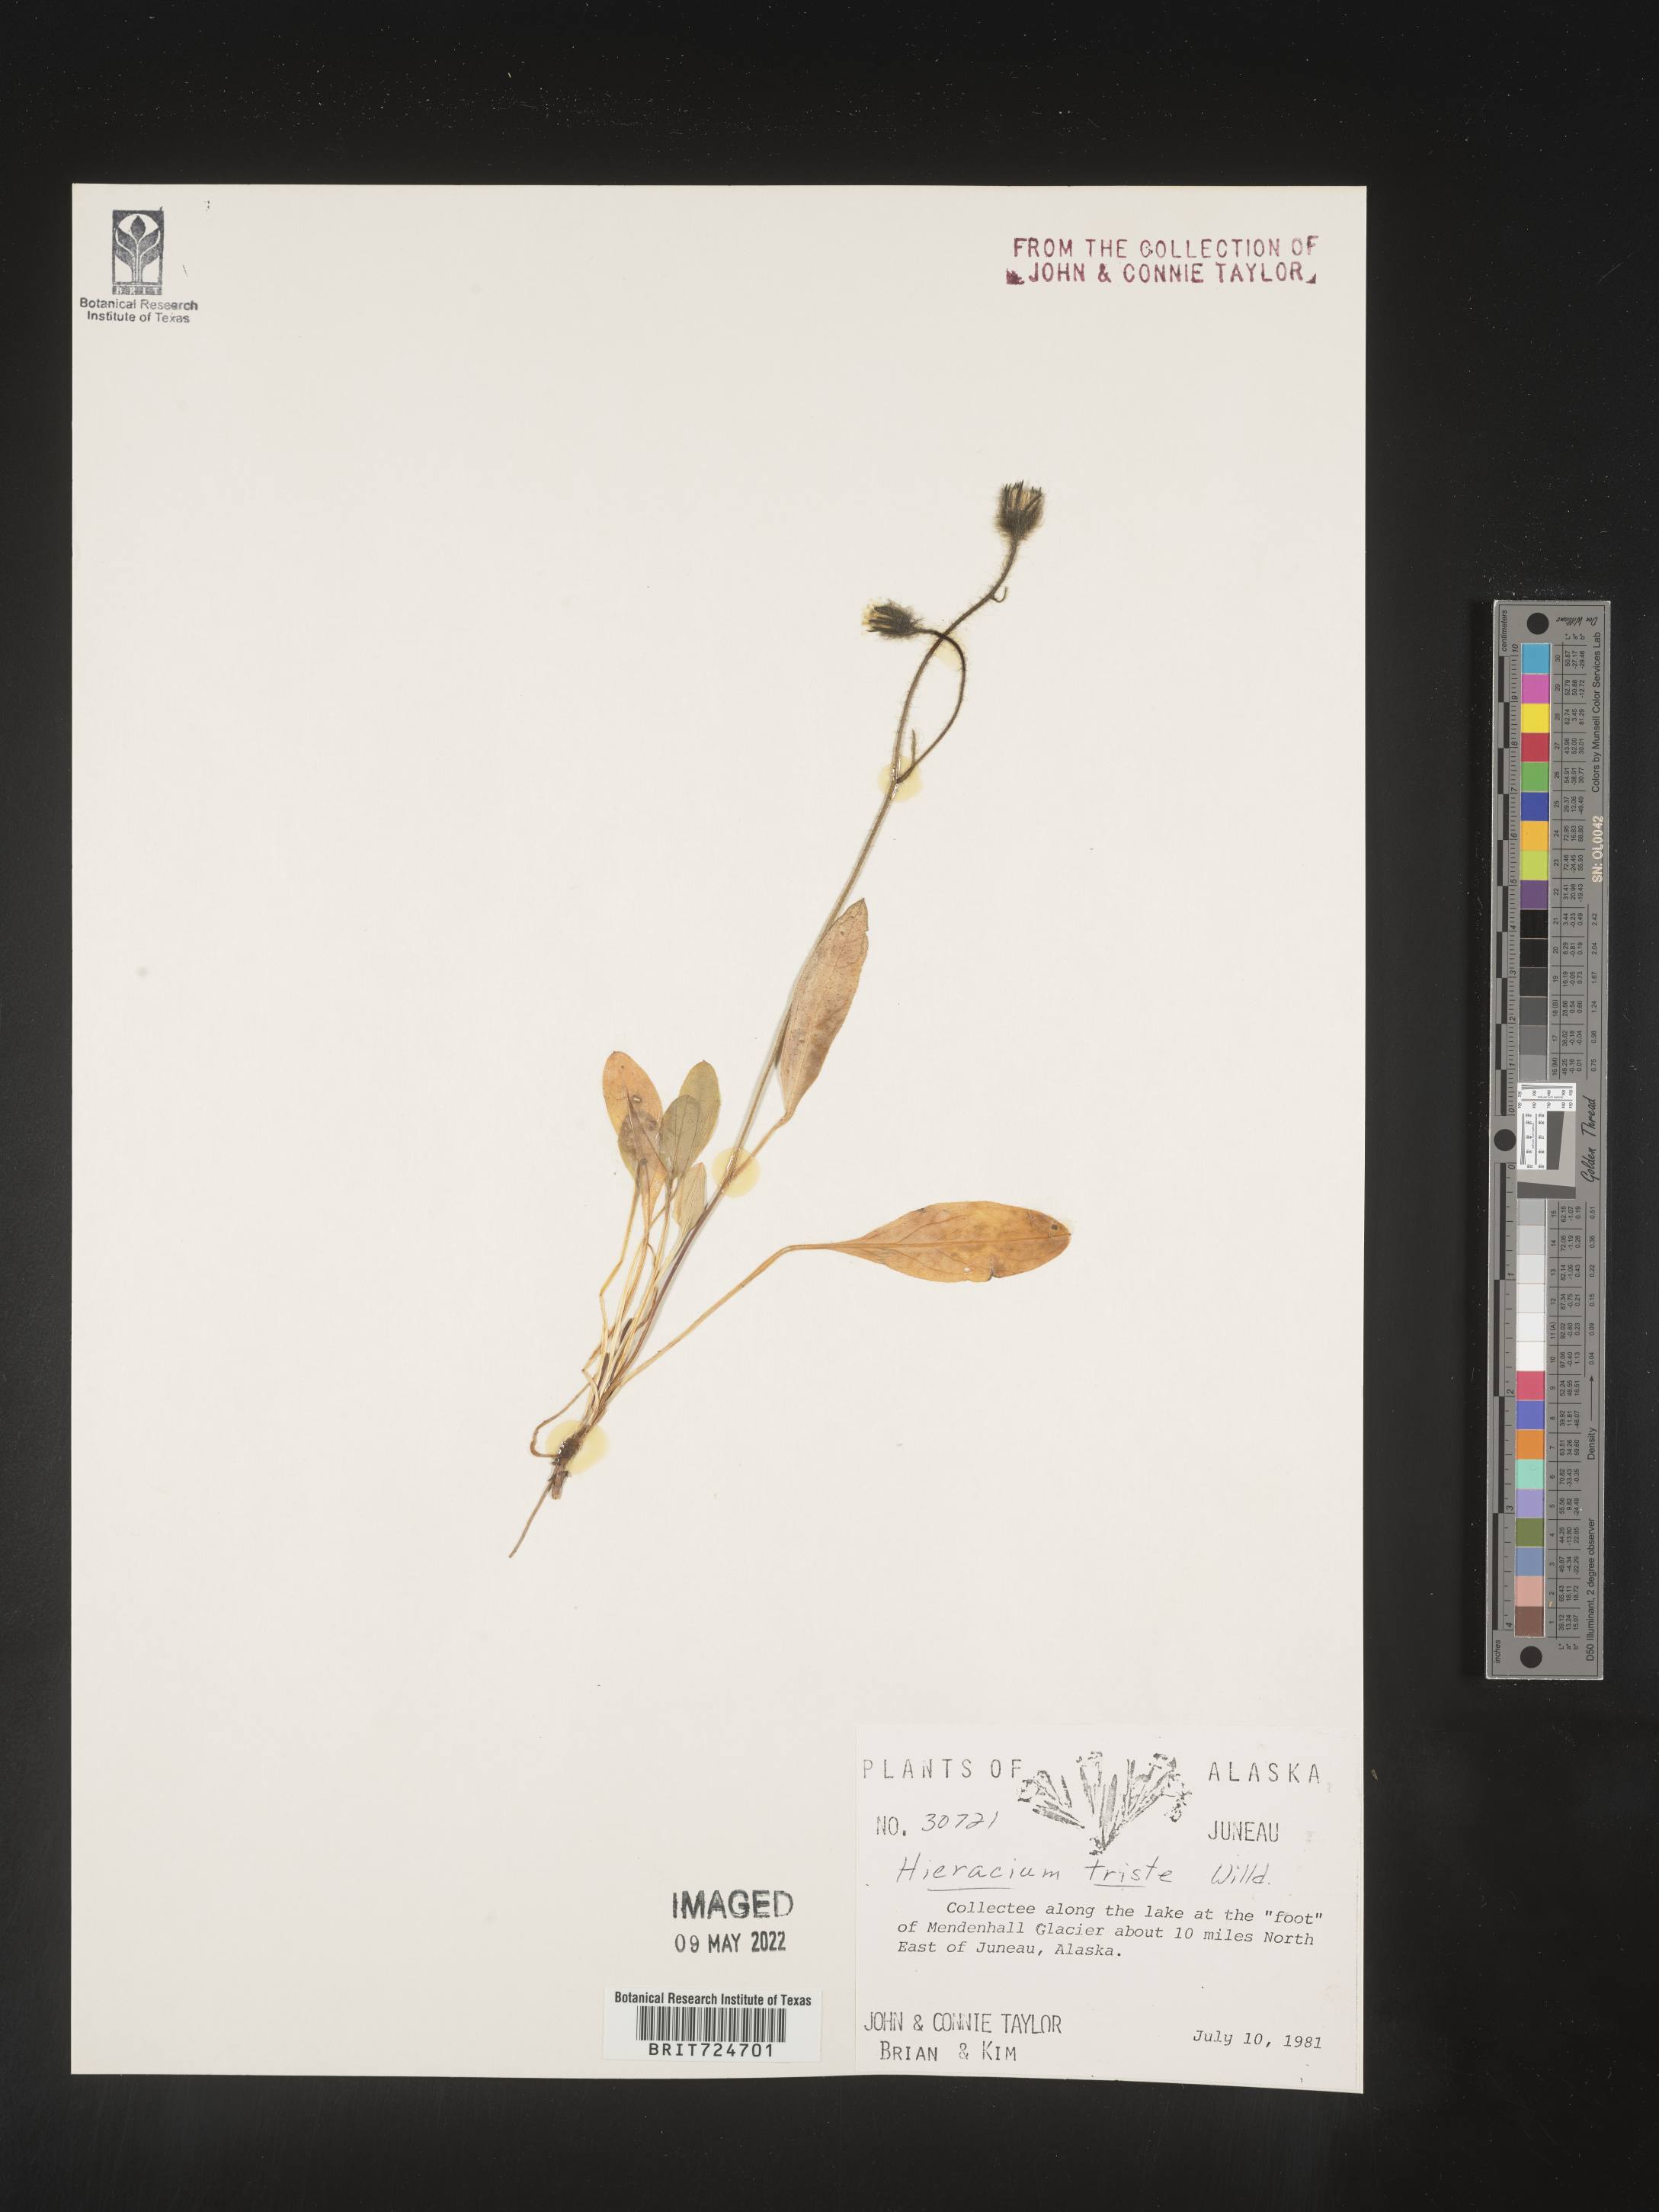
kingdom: Plantae
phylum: Tracheophyta
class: Magnoliopsida
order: Asterales
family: Asteraceae
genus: Hieracium
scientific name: Hieracium
